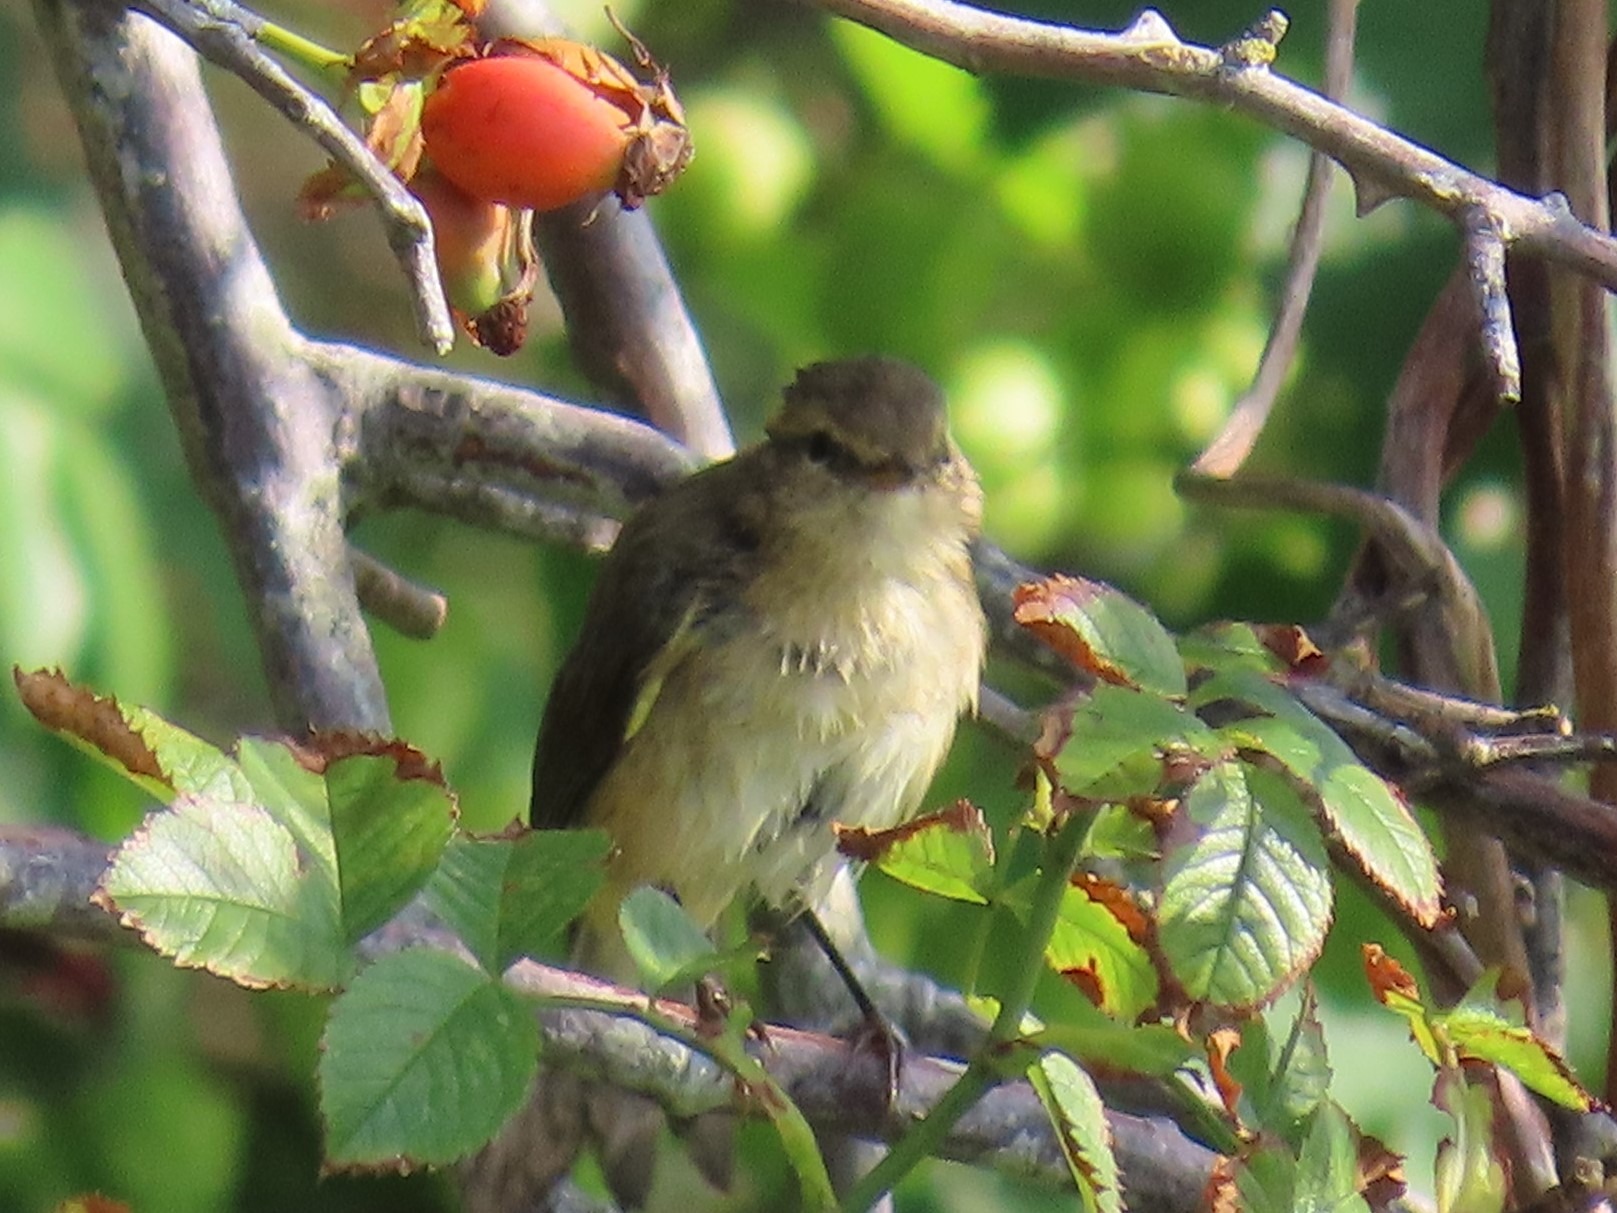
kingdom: Animalia
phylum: Chordata
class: Aves
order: Passeriformes
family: Phylloscopidae
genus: Phylloscopus
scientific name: Phylloscopus collybita
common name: Gransanger
